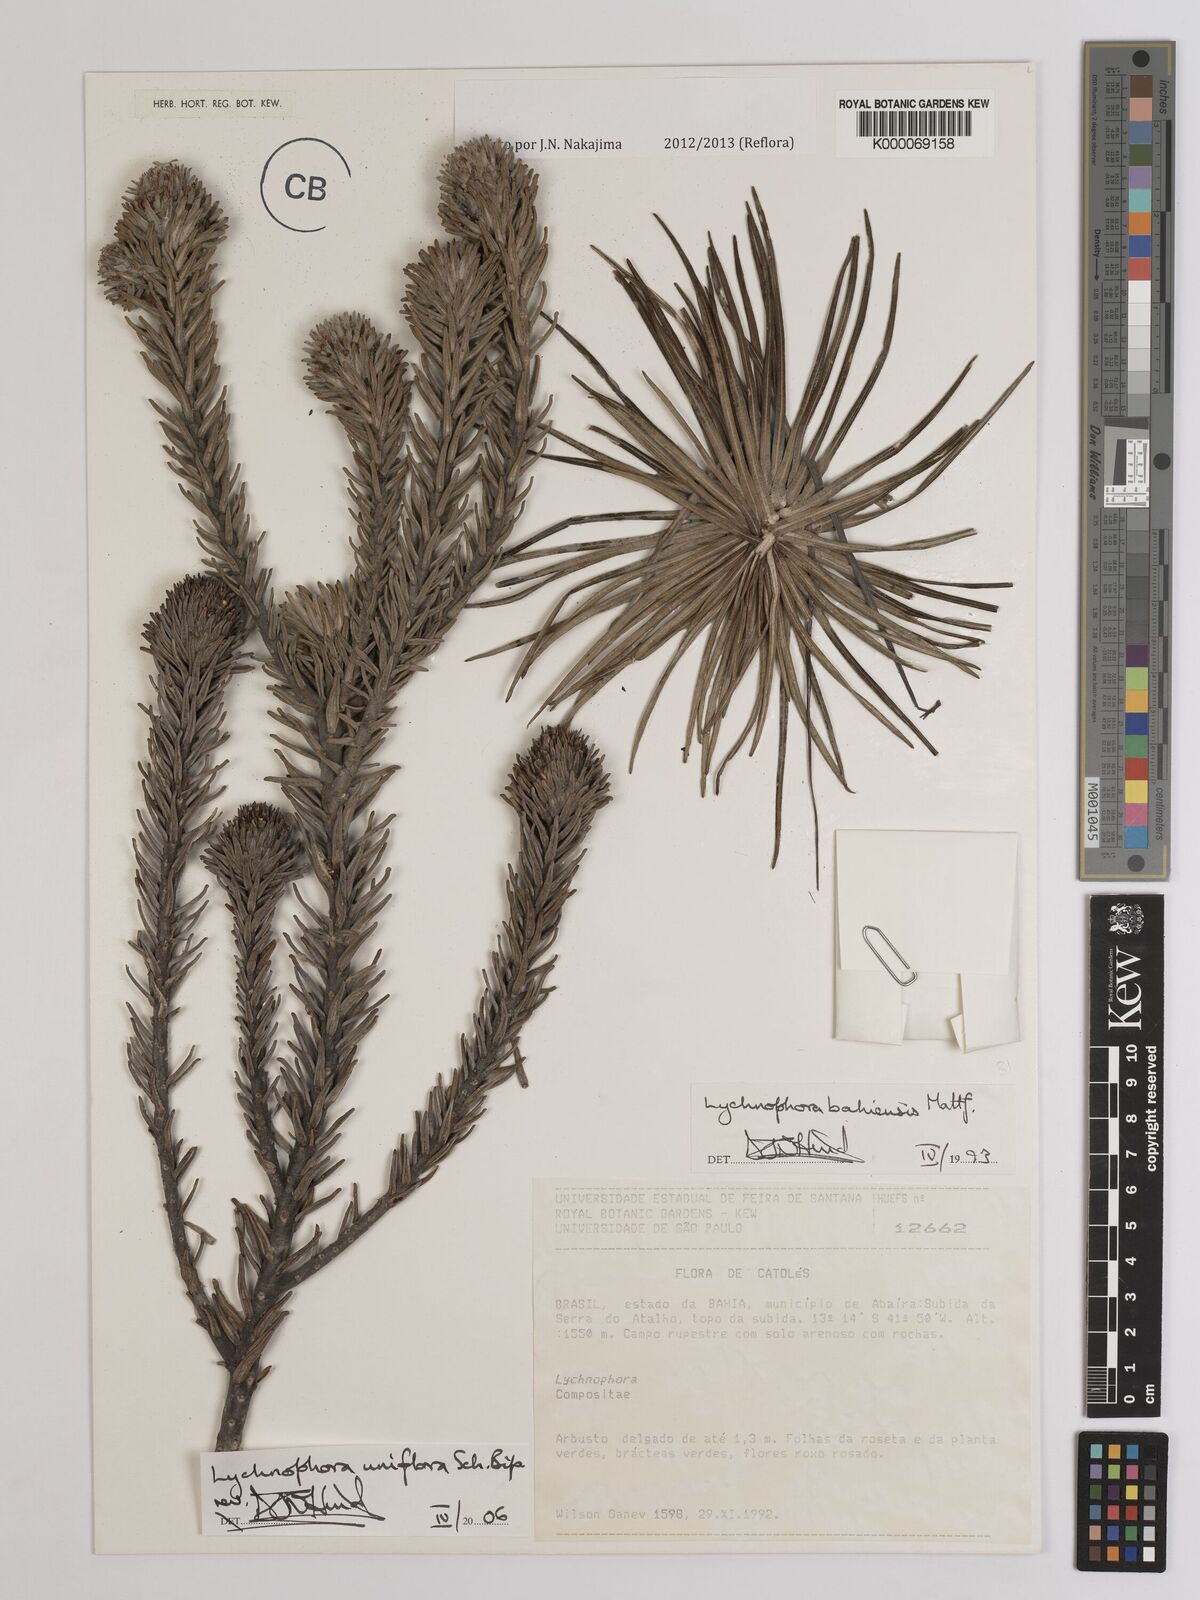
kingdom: Plantae
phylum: Tracheophyta
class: Magnoliopsida
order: Asterales
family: Asteraceae
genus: Lychnophora
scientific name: Lychnophora uniflora
